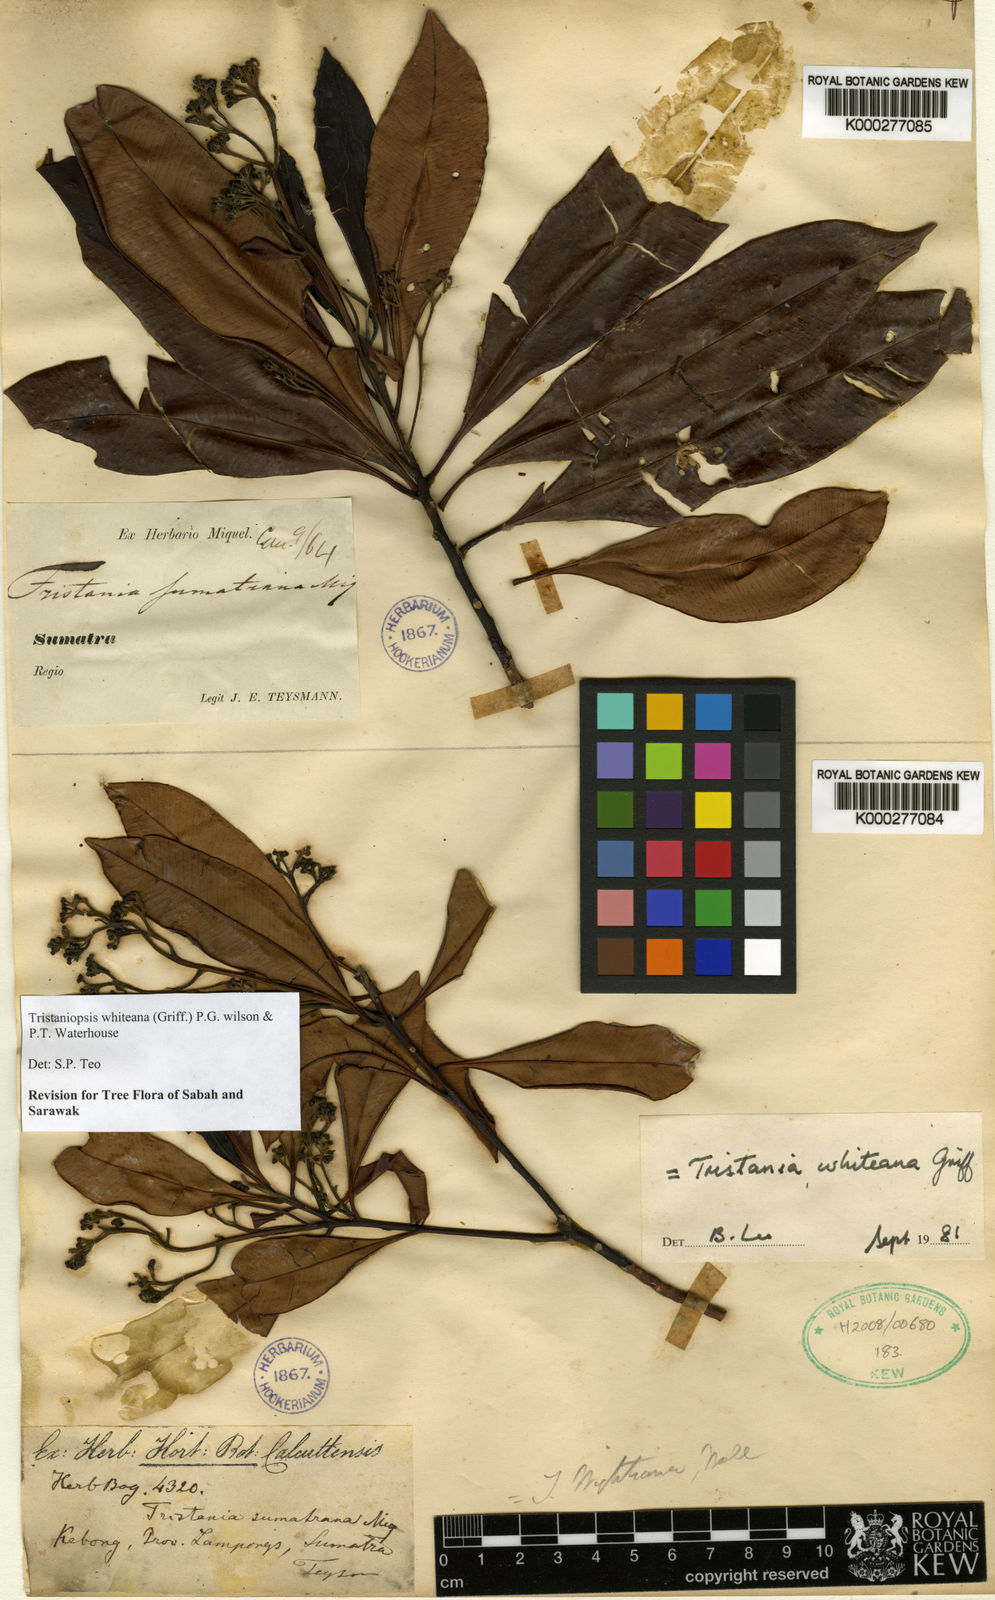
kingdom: Plantae
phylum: Tracheophyta
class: Magnoliopsida
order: Myrtales
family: Myrtaceae
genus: Tristaniopsis
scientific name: Tristaniopsis whiteana
